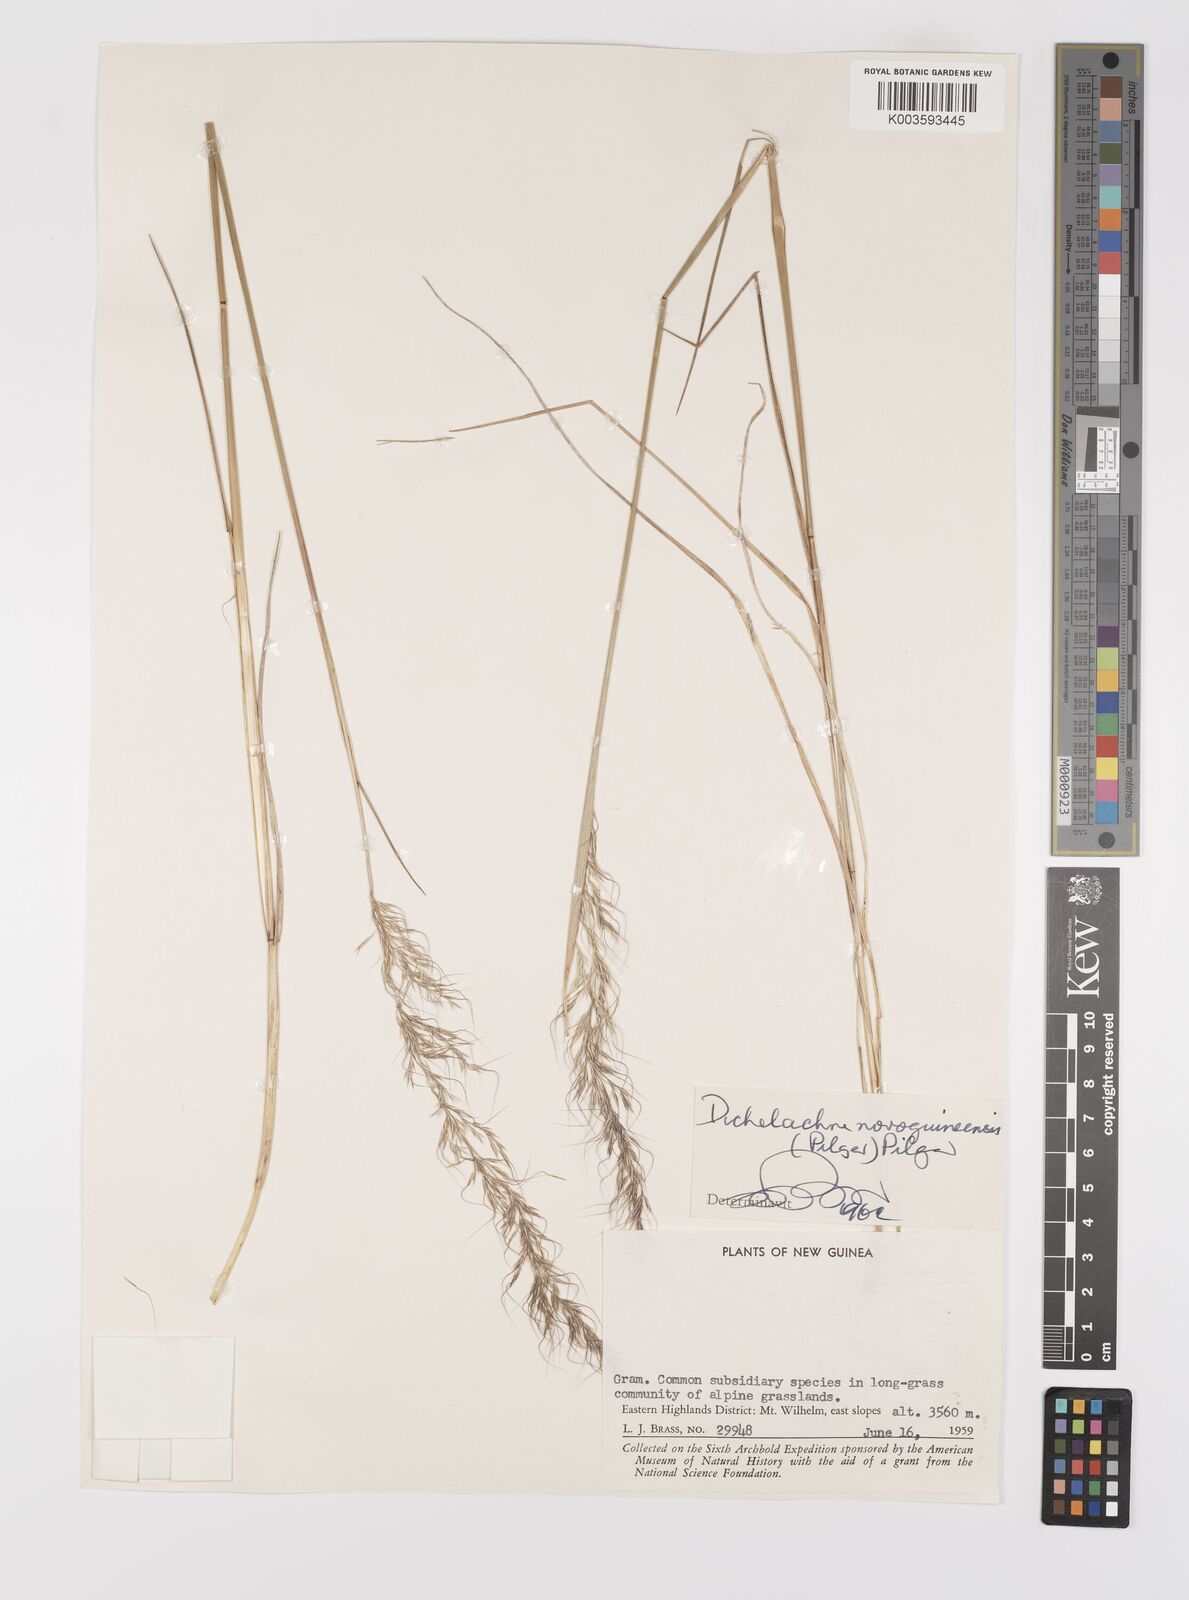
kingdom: Plantae
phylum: Tracheophyta
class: Liliopsida
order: Poales
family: Poaceae
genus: Dichelachne
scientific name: Dichelachne rara
